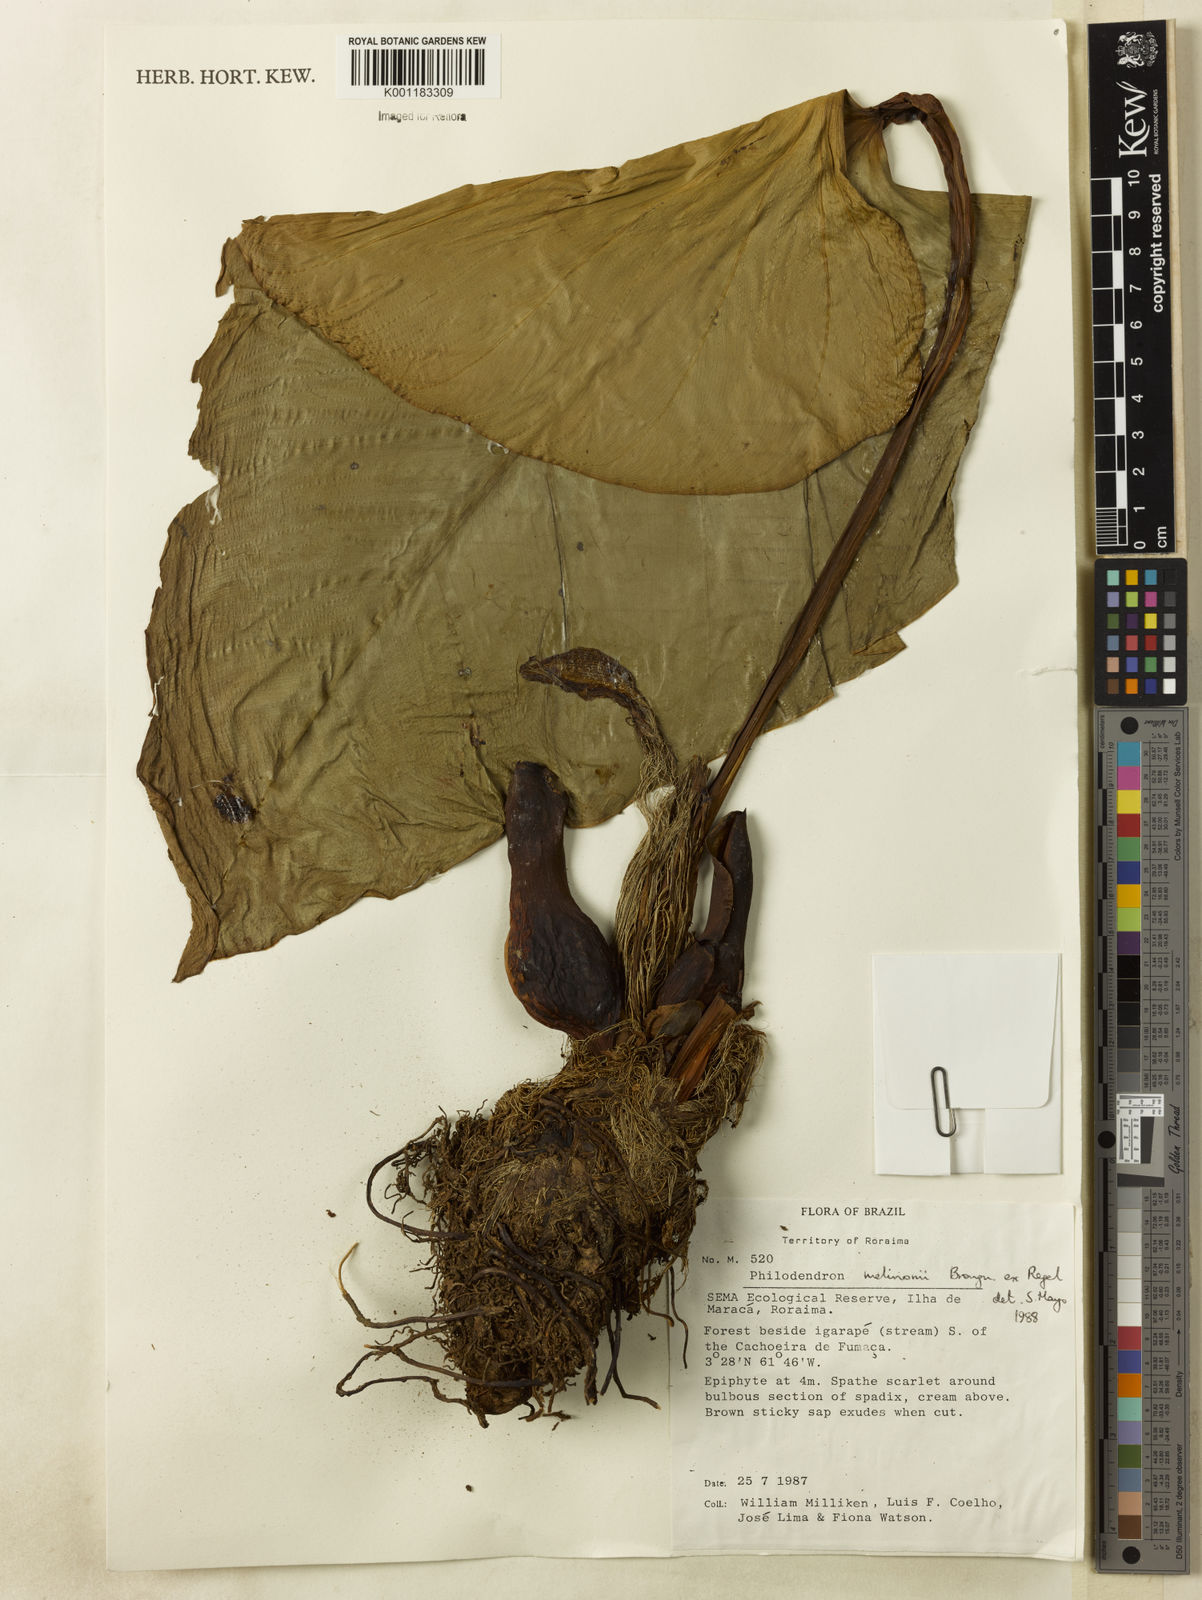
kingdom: Plantae
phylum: Tracheophyta
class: Liliopsida
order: Alismatales
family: Araceae
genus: Philodendron
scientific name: Philodendron melinonii
